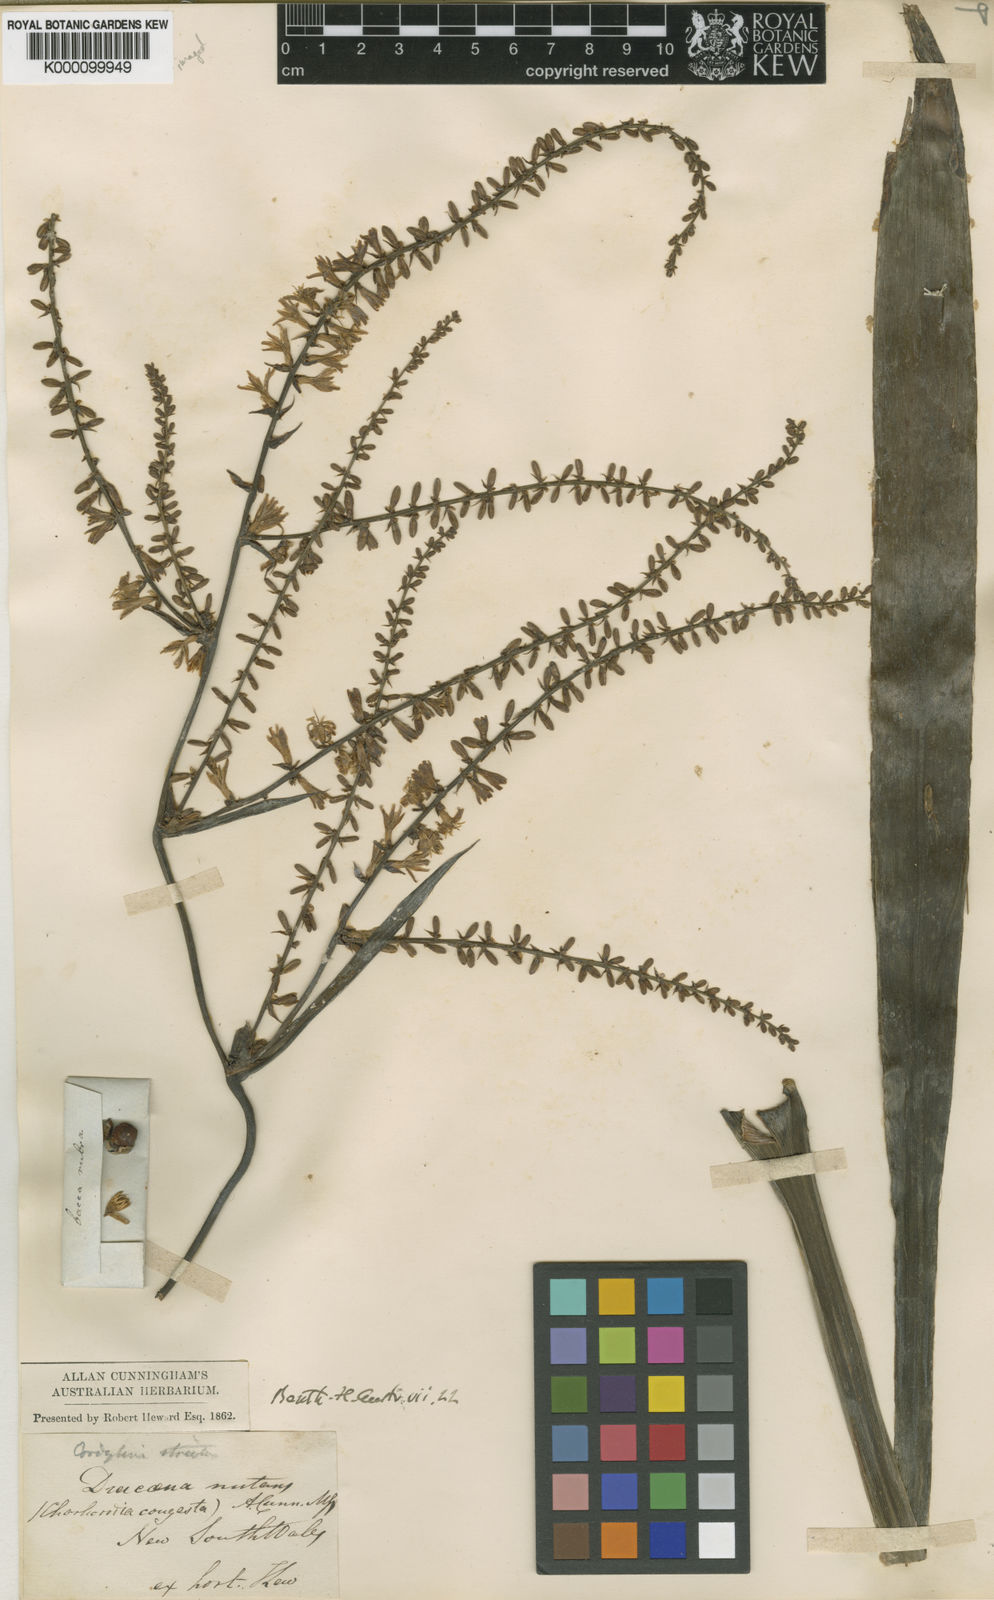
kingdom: Plantae
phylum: Tracheophyta
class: Liliopsida
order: Asparagales
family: Asparagaceae
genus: Cordyline
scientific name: Cordyline stricta
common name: Narrow-leaf palm-lily
